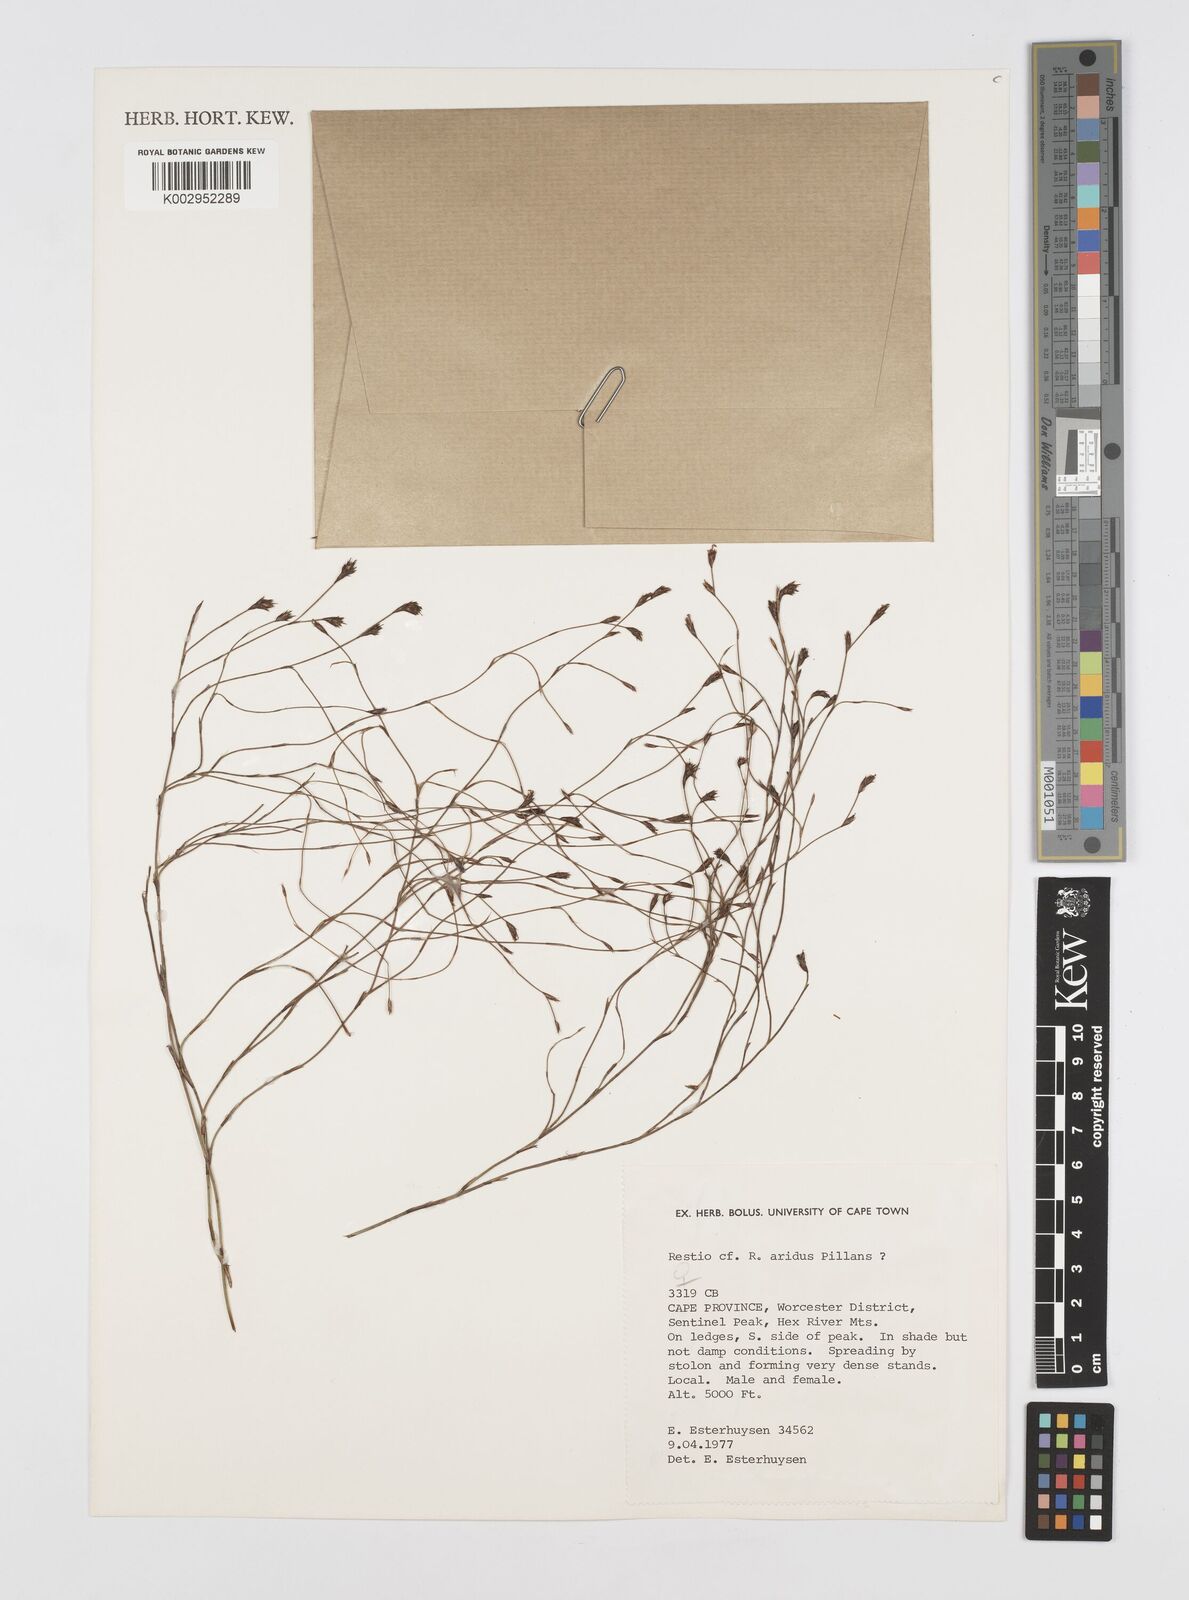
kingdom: Plantae
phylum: Tracheophyta
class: Liliopsida
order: Poales
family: Restionaceae
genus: Restio
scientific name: Restio aridus
